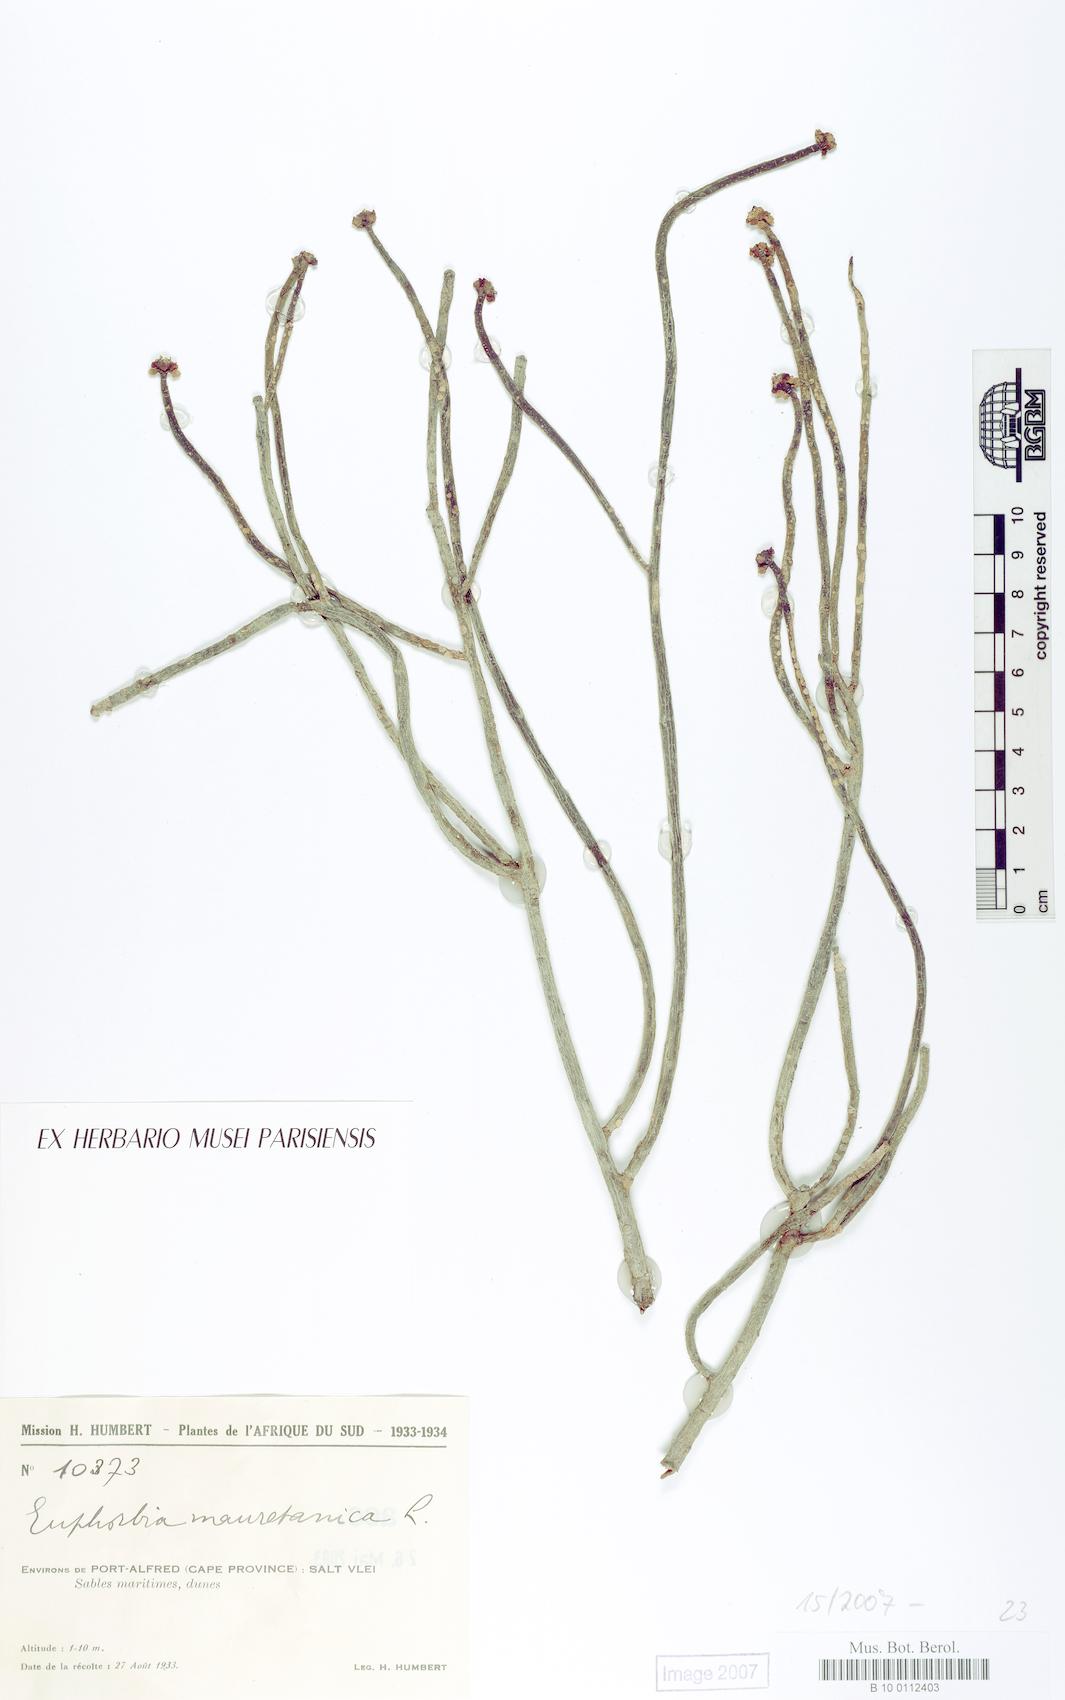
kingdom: Plantae
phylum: Tracheophyta
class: Magnoliopsida
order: Malpighiales
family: Euphorbiaceae
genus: Euphorbia
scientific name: Euphorbia mauritanica
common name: Jackal's-food
